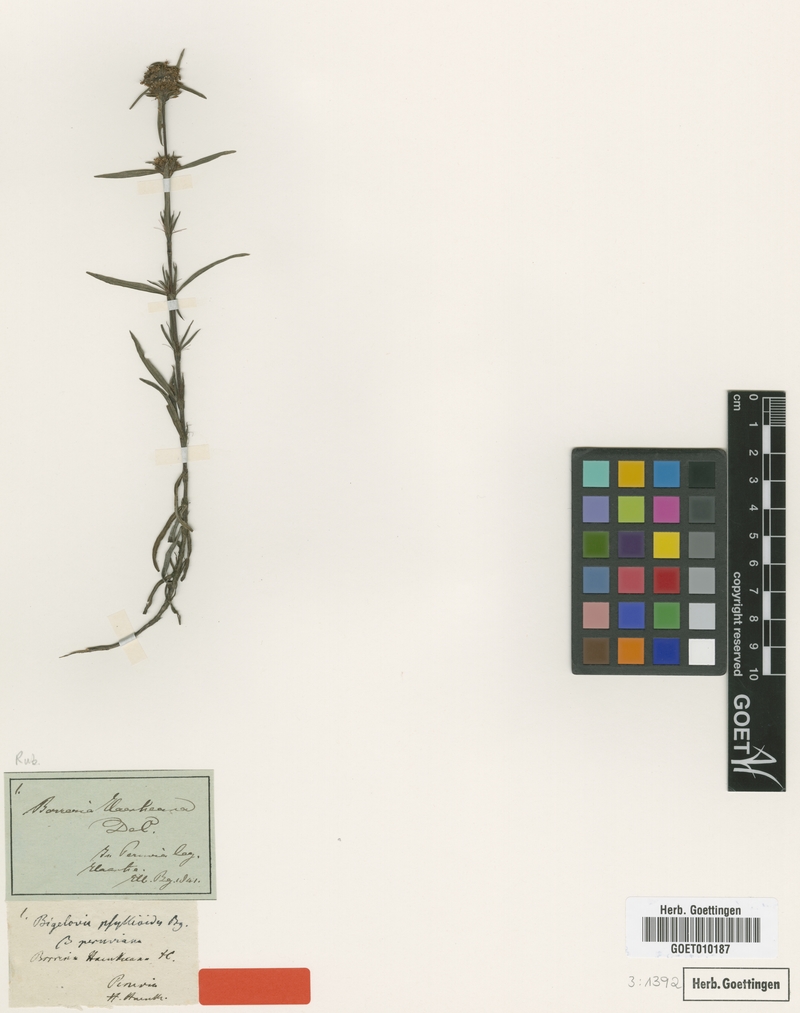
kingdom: Plantae
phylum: Tracheophyta
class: Magnoliopsida
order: Gentianales
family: Rubiaceae
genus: Spermacoce
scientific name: Spermacoce suaveolens
